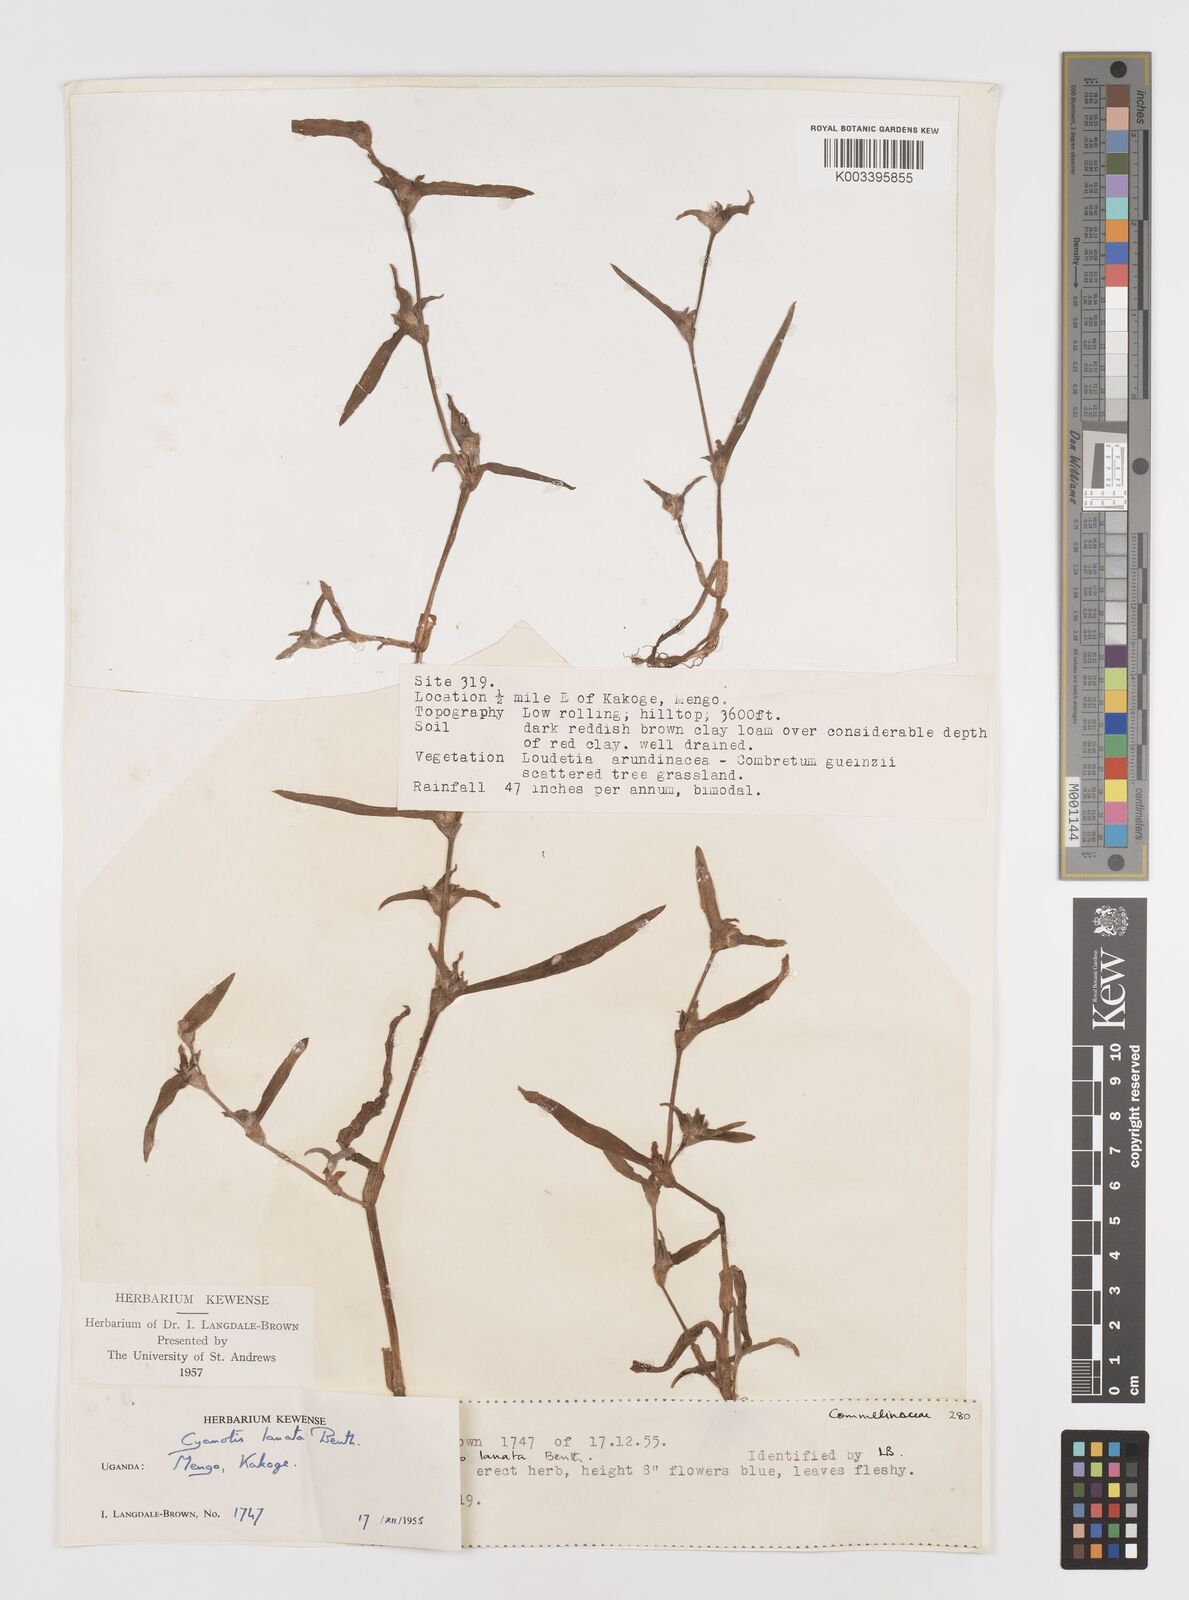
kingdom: Plantae
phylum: Tracheophyta
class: Liliopsida
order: Commelinales
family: Commelinaceae
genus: Cyanotis
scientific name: Cyanotis lanata
